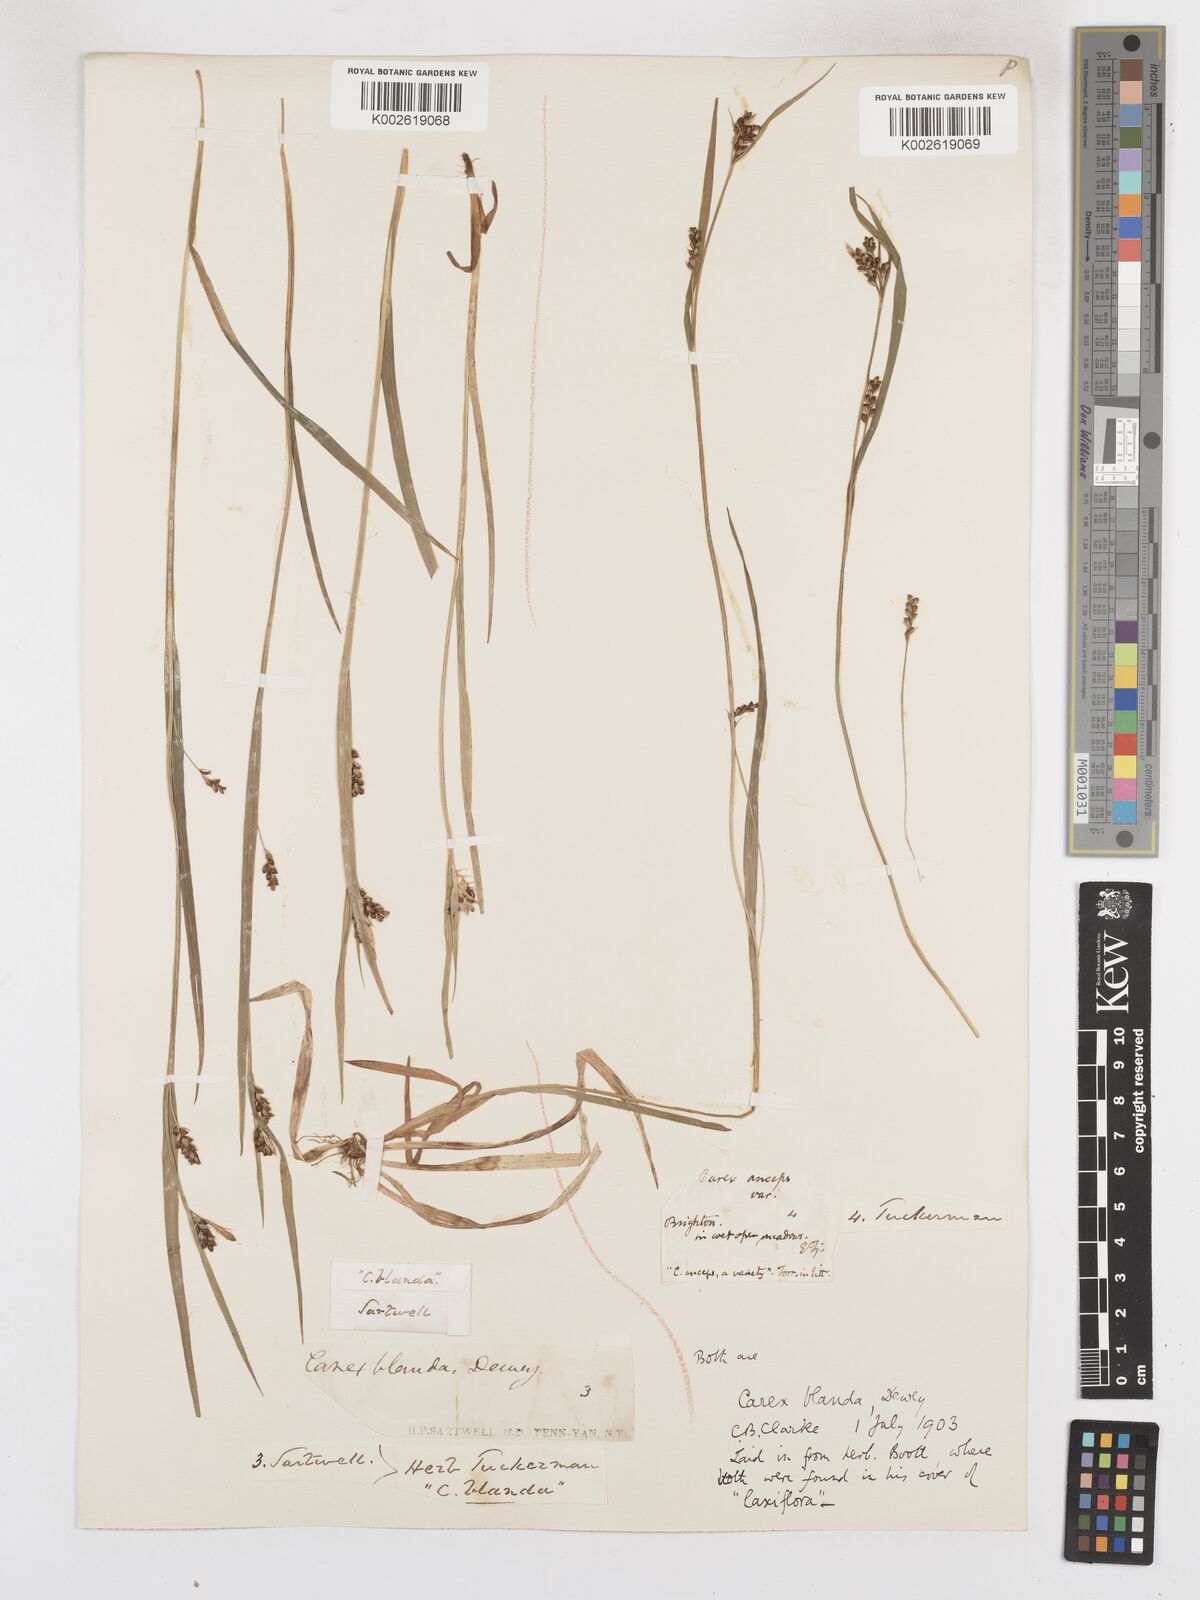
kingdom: Plantae
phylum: Tracheophyta
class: Liliopsida
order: Poales
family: Cyperaceae
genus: Carex
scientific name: Carex blanda
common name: Bland sedge
